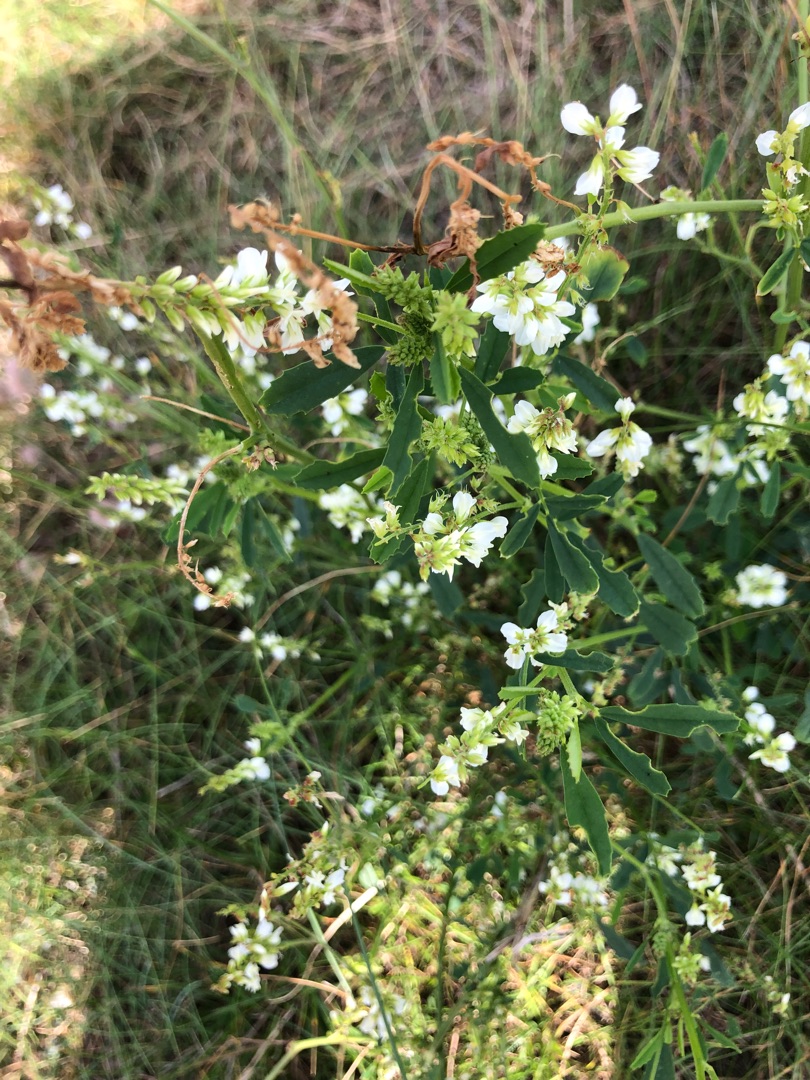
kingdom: Plantae
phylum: Tracheophyta
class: Magnoliopsida
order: Fabales
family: Fabaceae
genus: Melilotus
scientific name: Melilotus albus
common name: Hvid stenkløver
